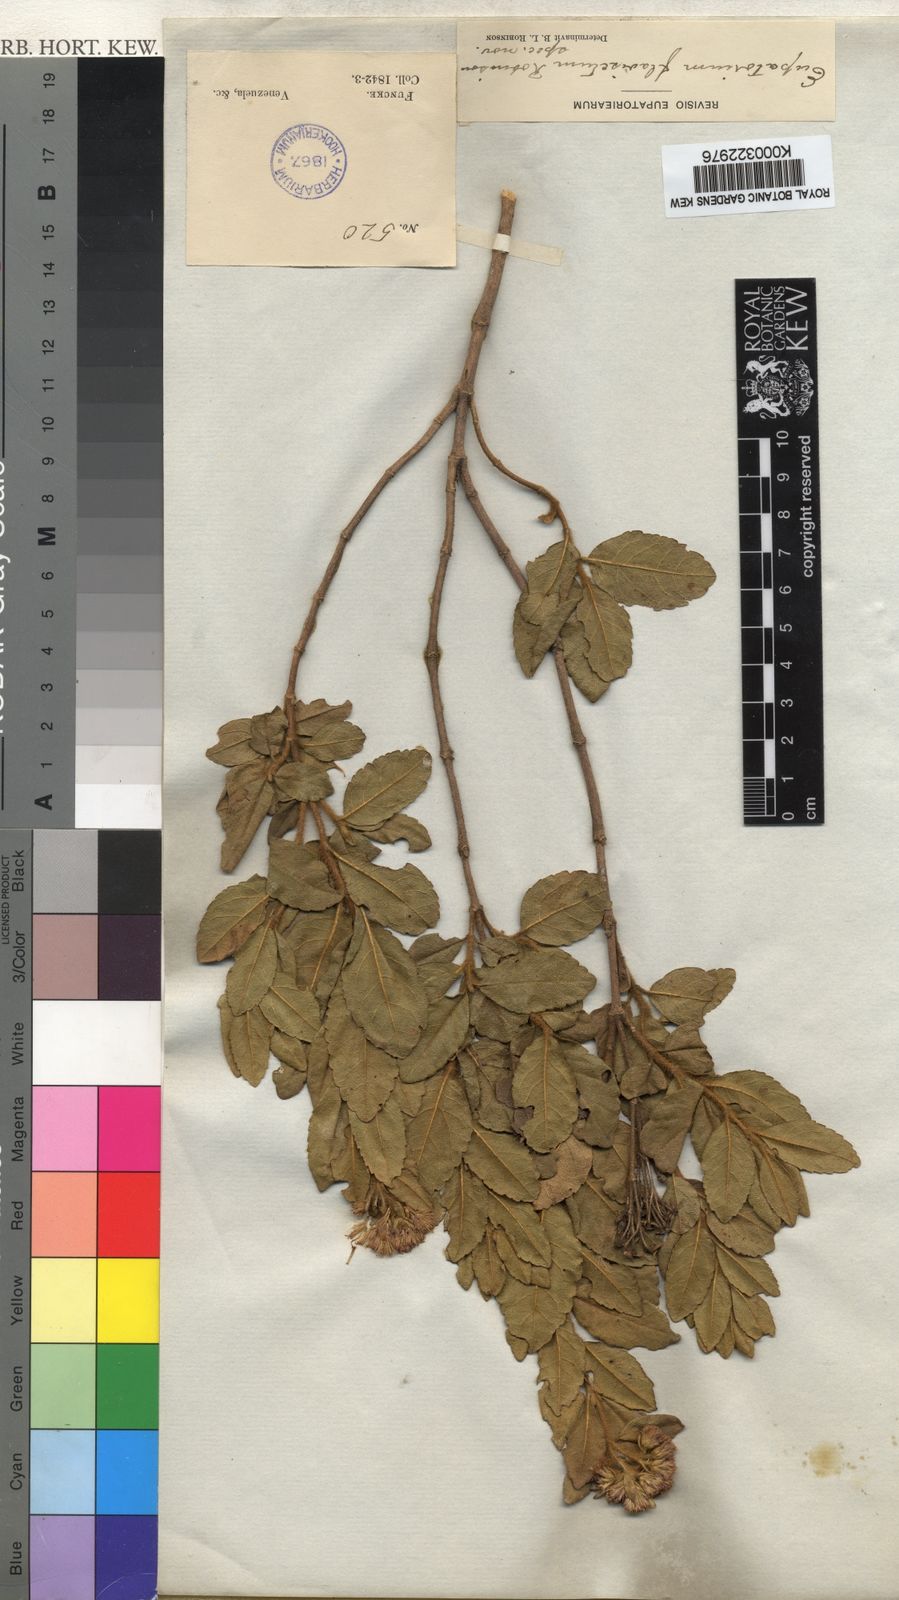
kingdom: Plantae
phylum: Tracheophyta
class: Magnoliopsida
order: Asterales
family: Asteraceae
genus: Ageratina
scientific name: Ageratina flaviseta
